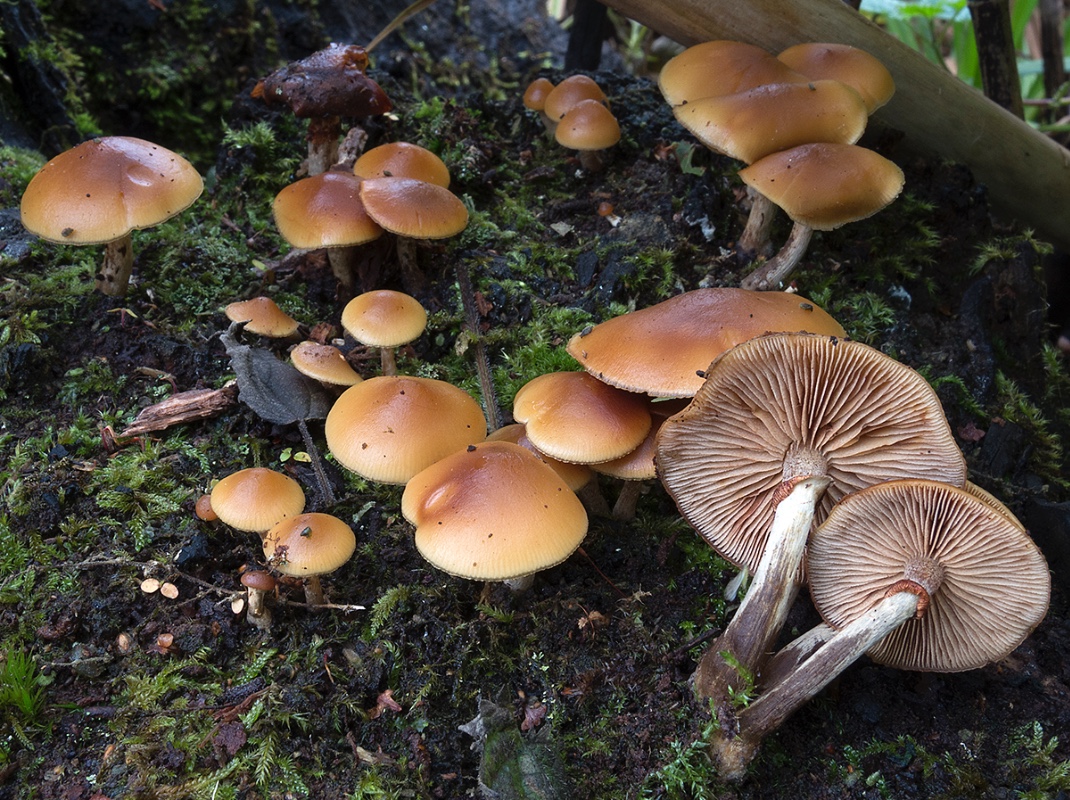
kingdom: Fungi
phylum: Basidiomycota
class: Agaricomycetes
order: Agaricales
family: Hymenogastraceae
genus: Galerina
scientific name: Galerina marginata
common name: randbæltet hjelmhat
